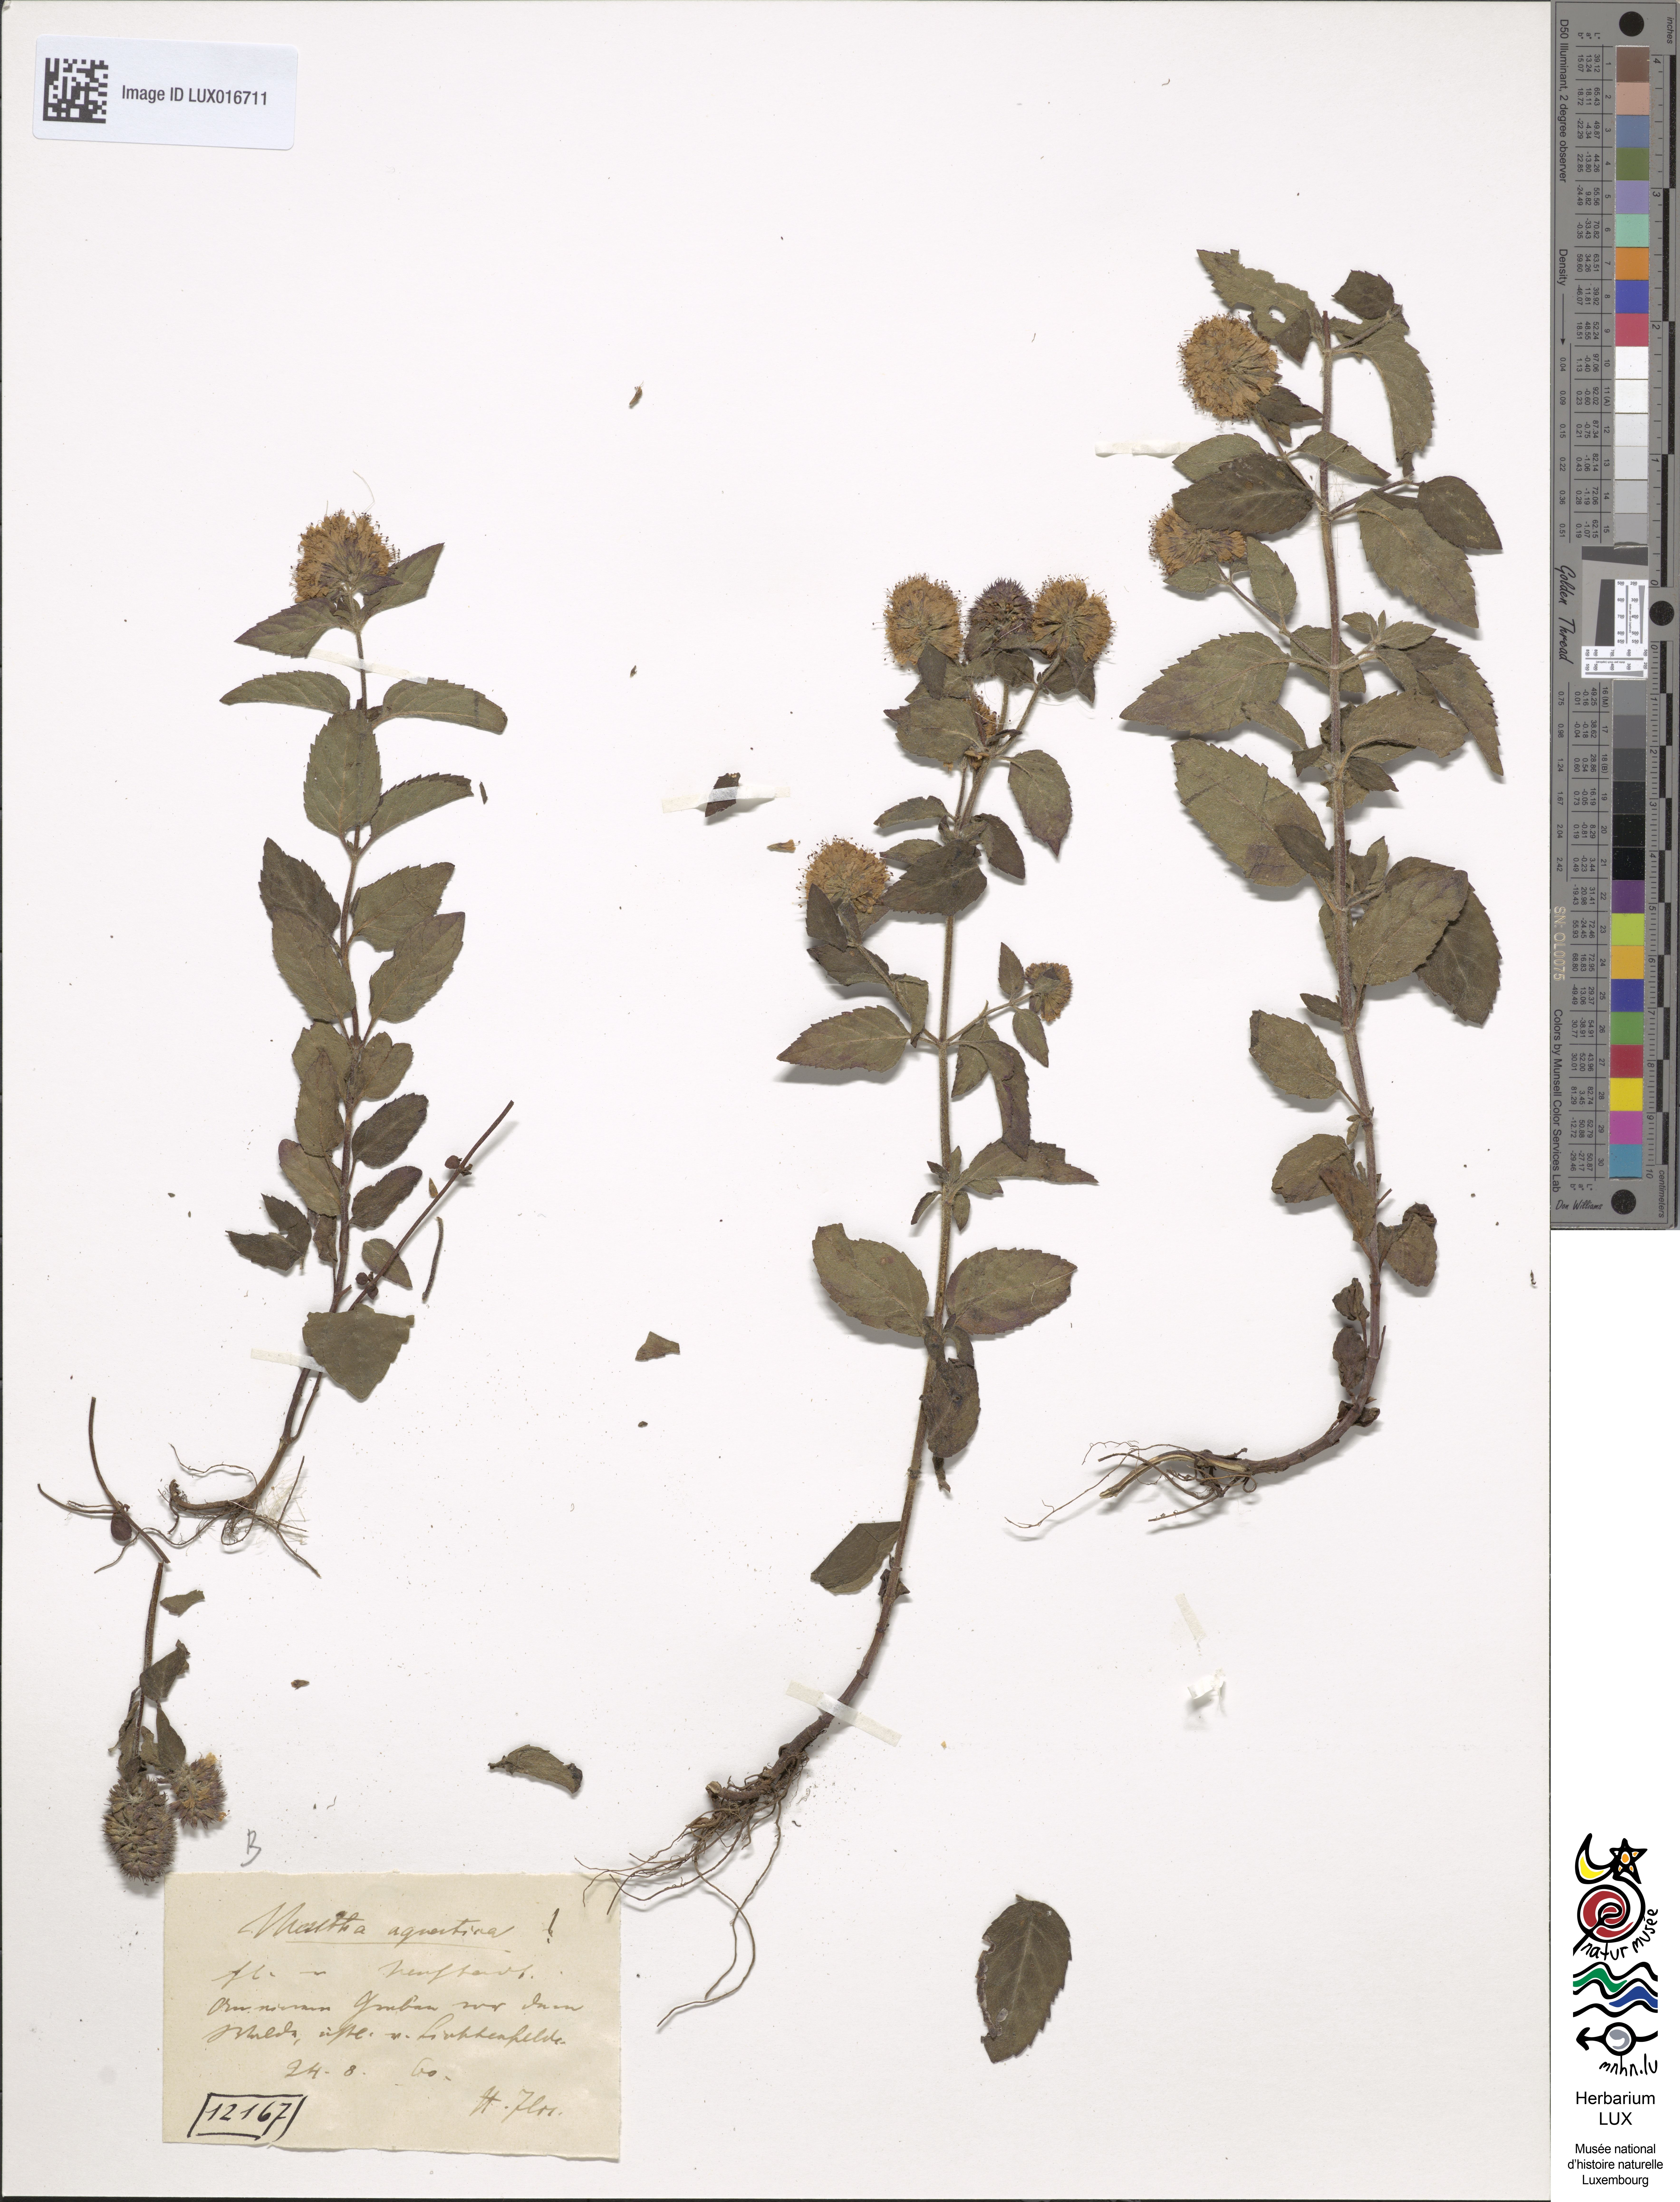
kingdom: Plantae
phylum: Tracheophyta
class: Magnoliopsida
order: Lamiales
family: Lamiaceae
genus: Mentha
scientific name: Mentha aquatica
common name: Water mint
